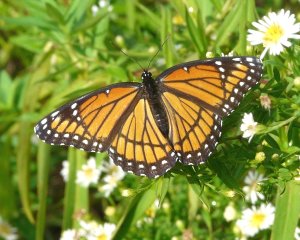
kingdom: Animalia
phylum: Arthropoda
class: Insecta
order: Lepidoptera
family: Nymphalidae
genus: Limenitis
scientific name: Limenitis archippus
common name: Viceroy
